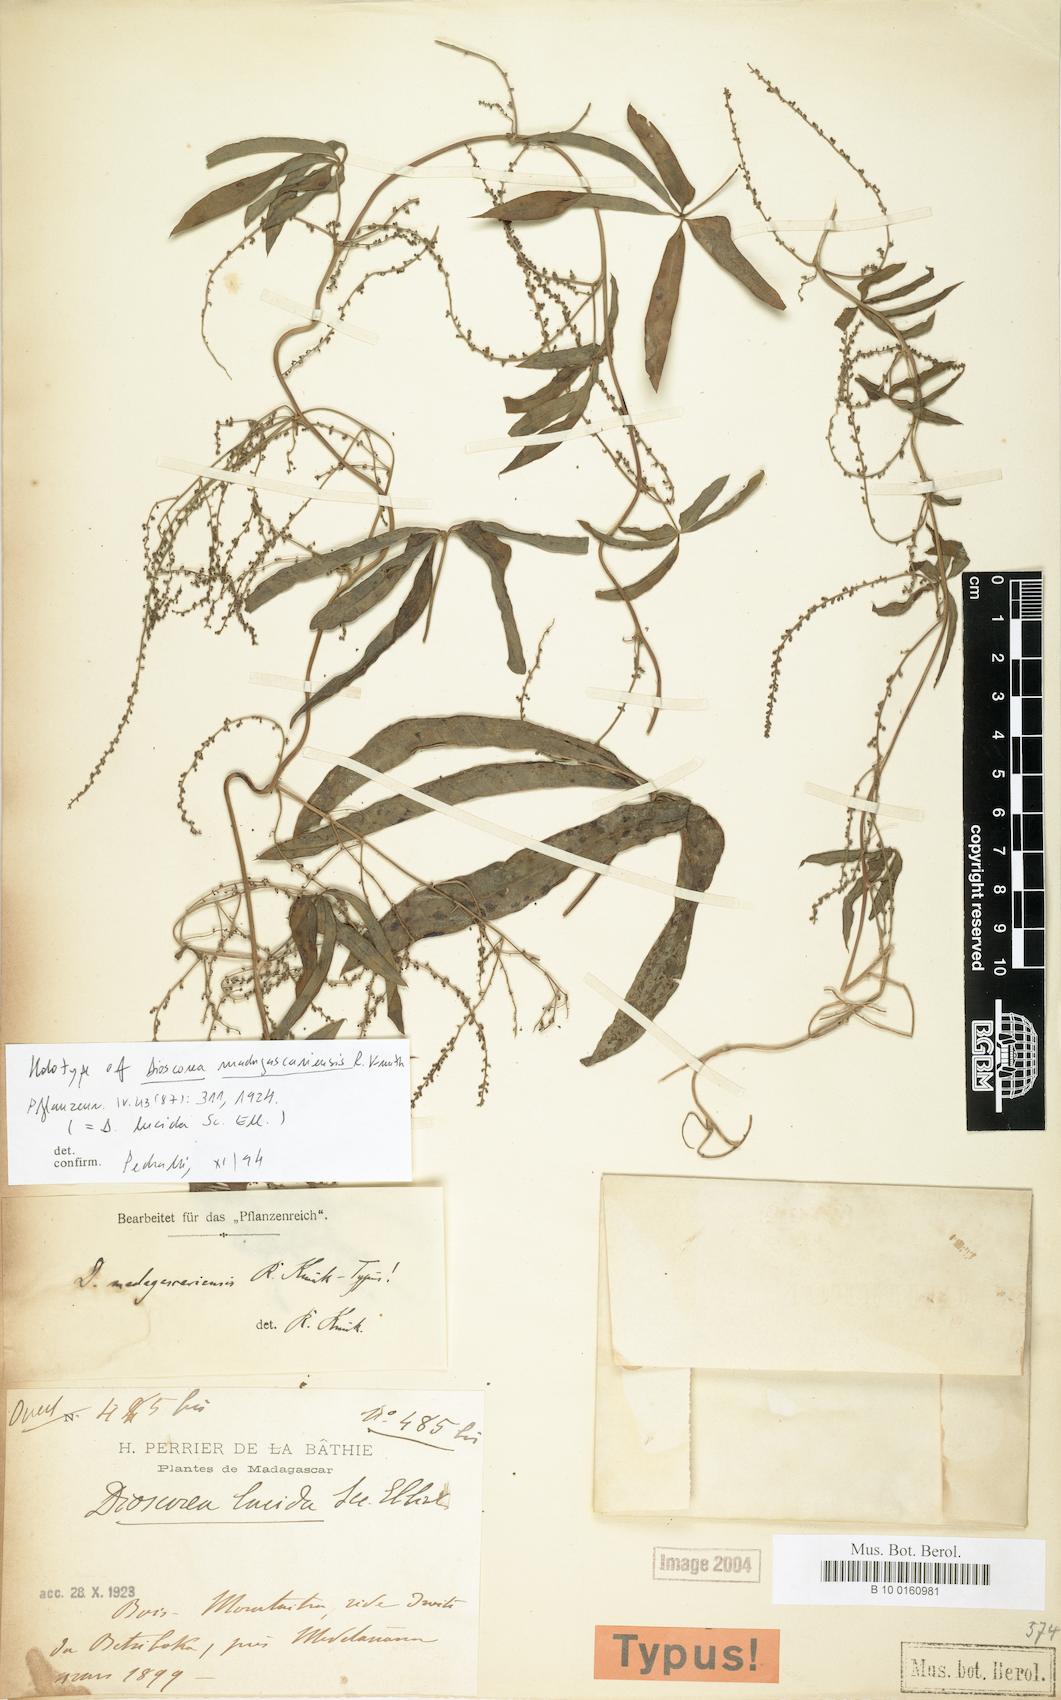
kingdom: Plantae
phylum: Tracheophyta
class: Liliopsida
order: Dioscoreales
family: Dioscoreaceae
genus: Dioscorea
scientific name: Dioscorea bemarivensis
